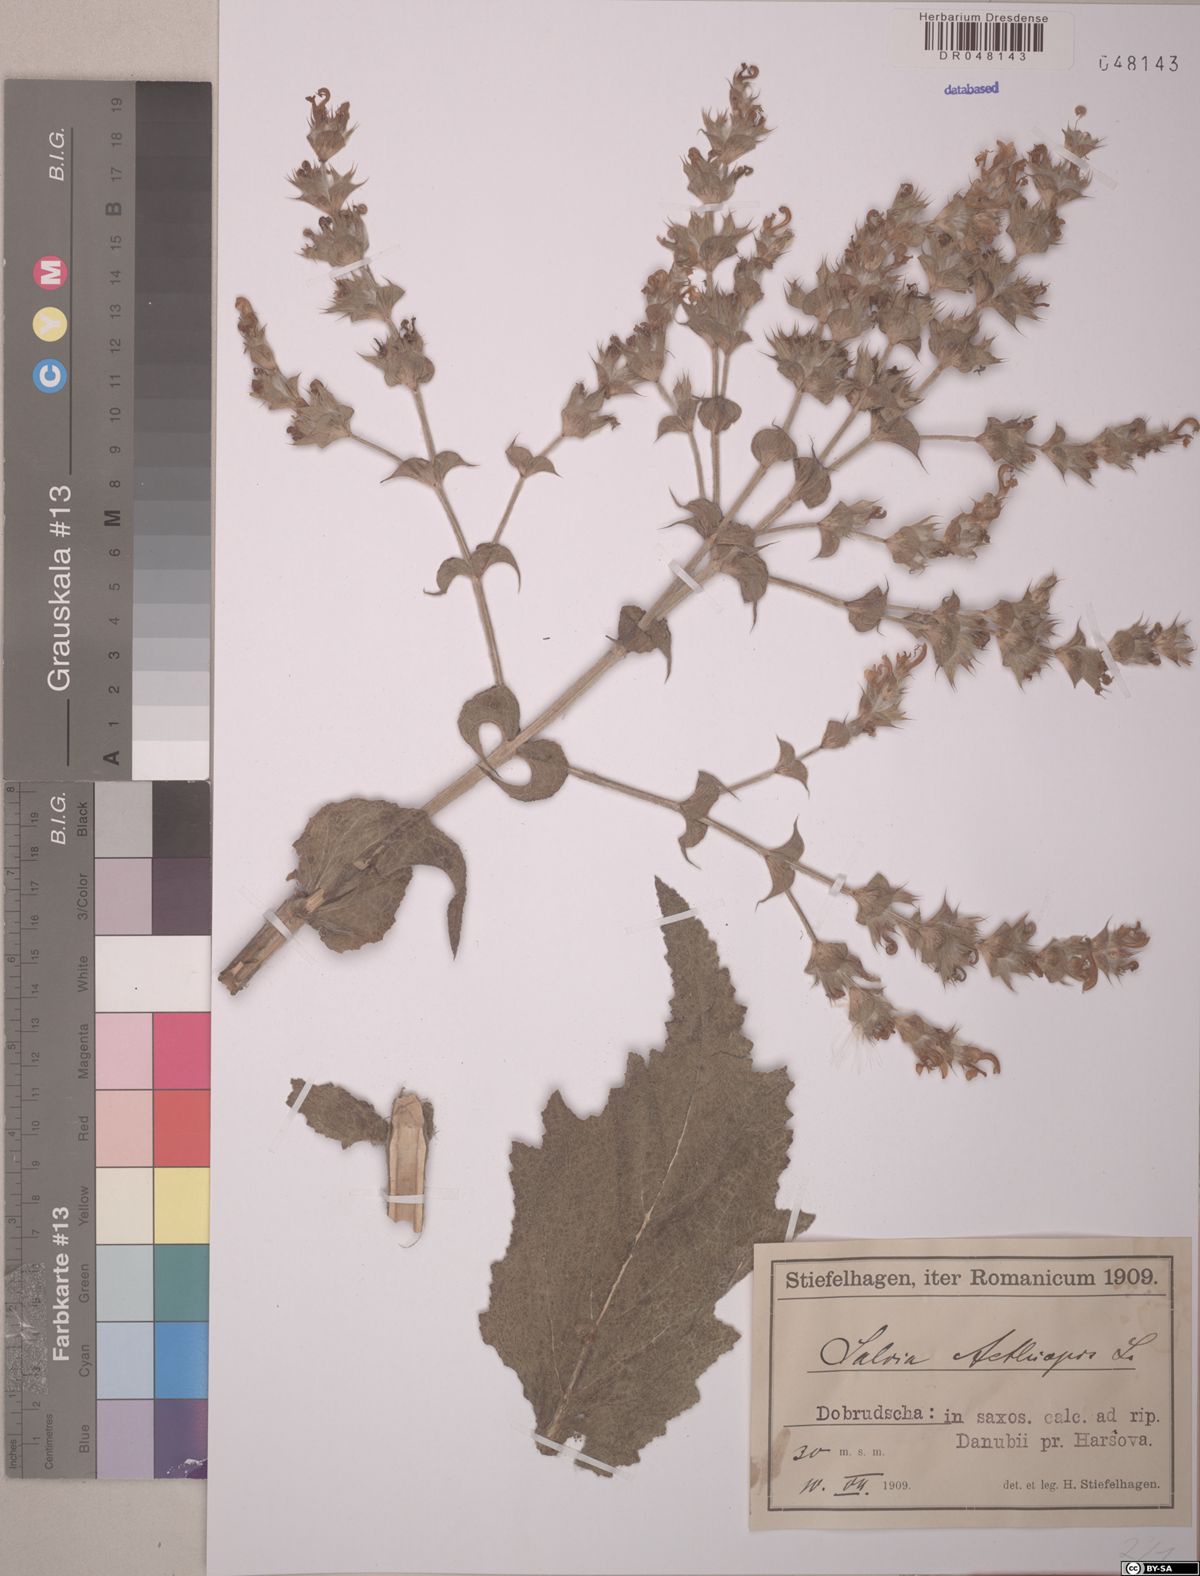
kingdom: Plantae
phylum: Tracheophyta
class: Magnoliopsida
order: Lamiales
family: Lamiaceae
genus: Salvia
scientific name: Salvia aethiopis
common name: Mediterranean sage
